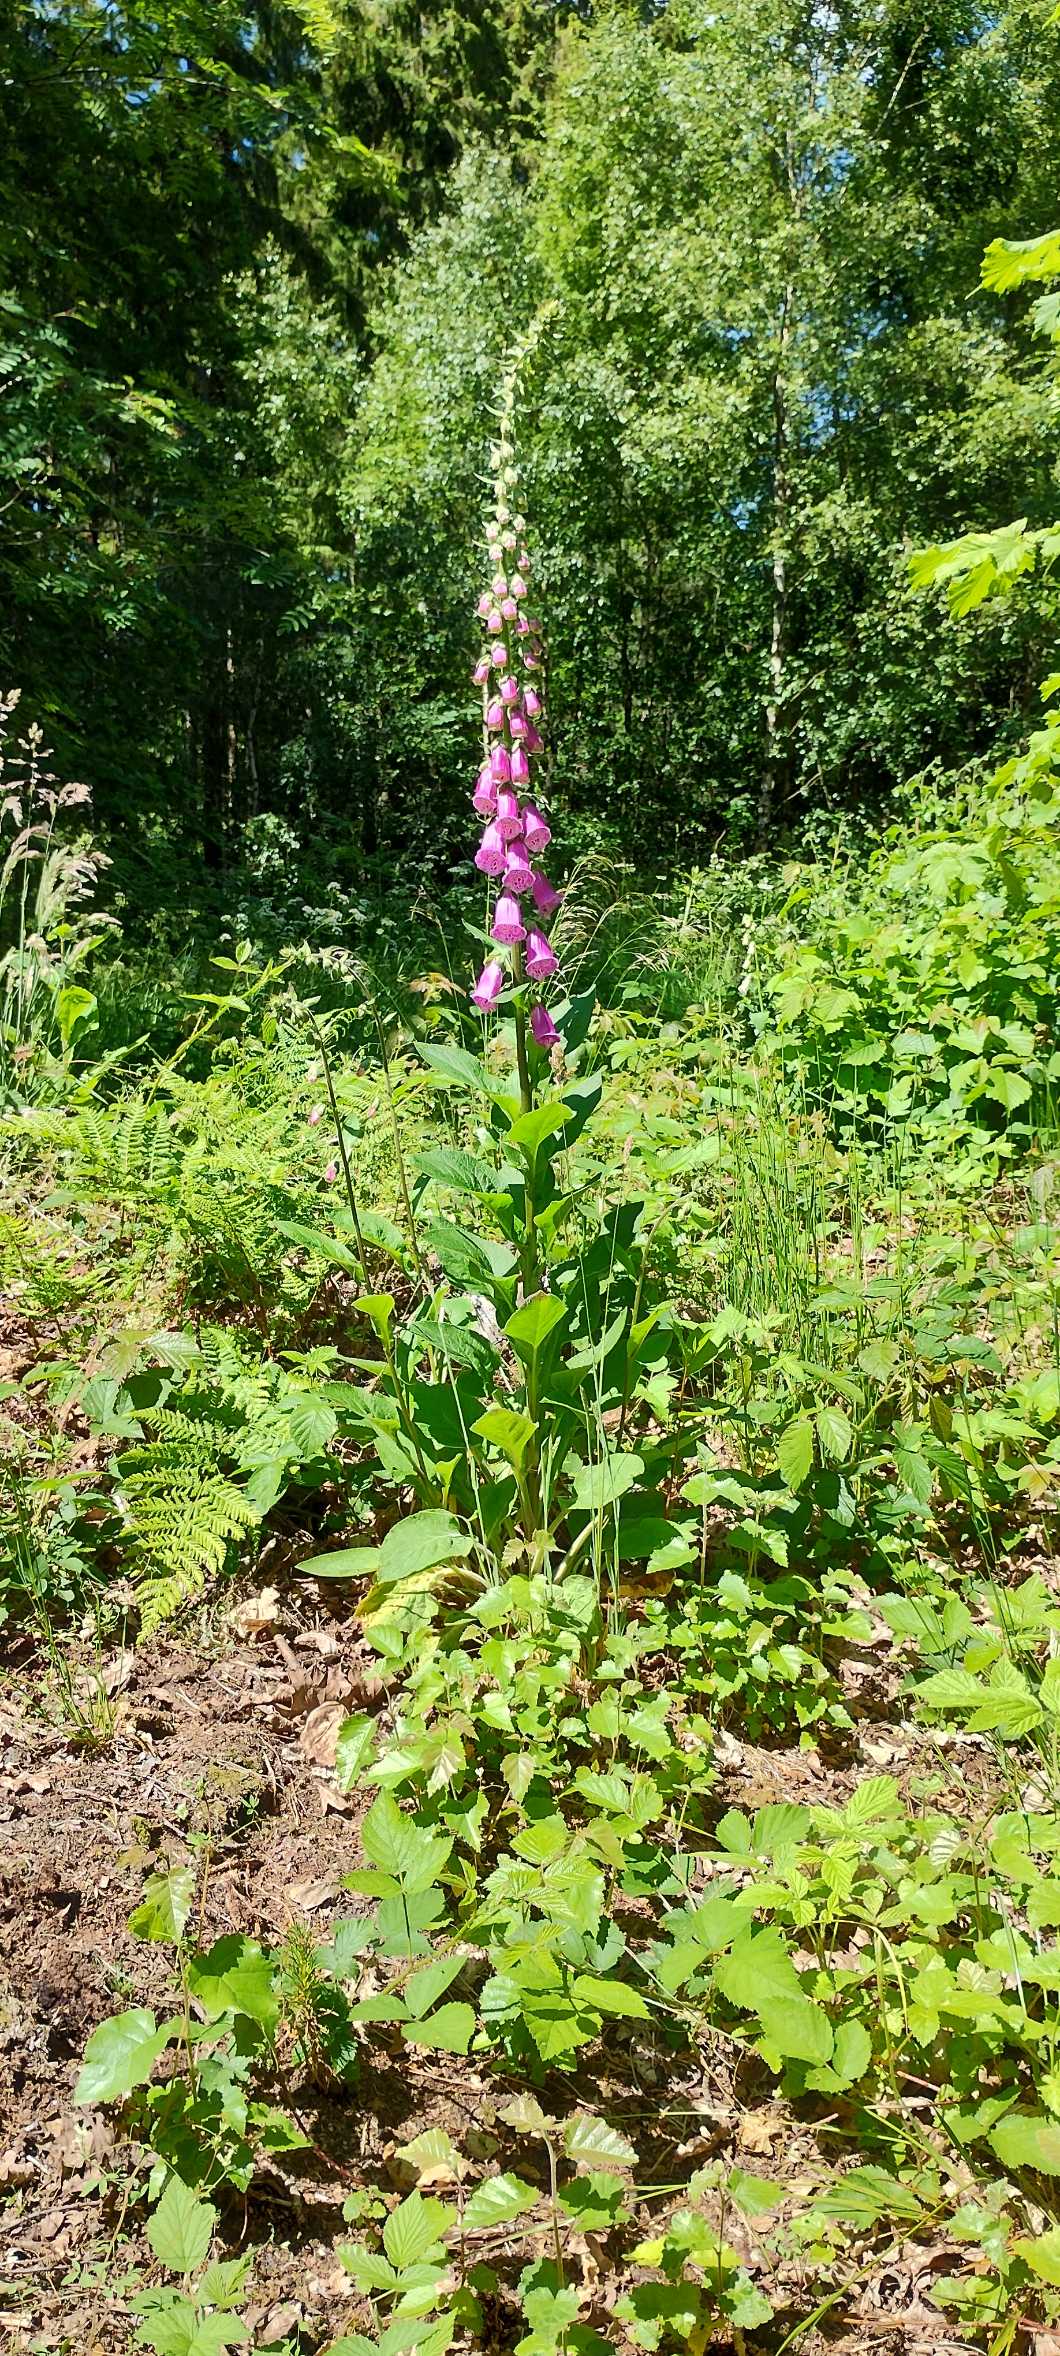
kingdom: Plantae
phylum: Tracheophyta
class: Magnoliopsida
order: Lamiales
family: Plantaginaceae
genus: Digitalis
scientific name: Digitalis purpurea
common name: Almindelig fingerbøl
